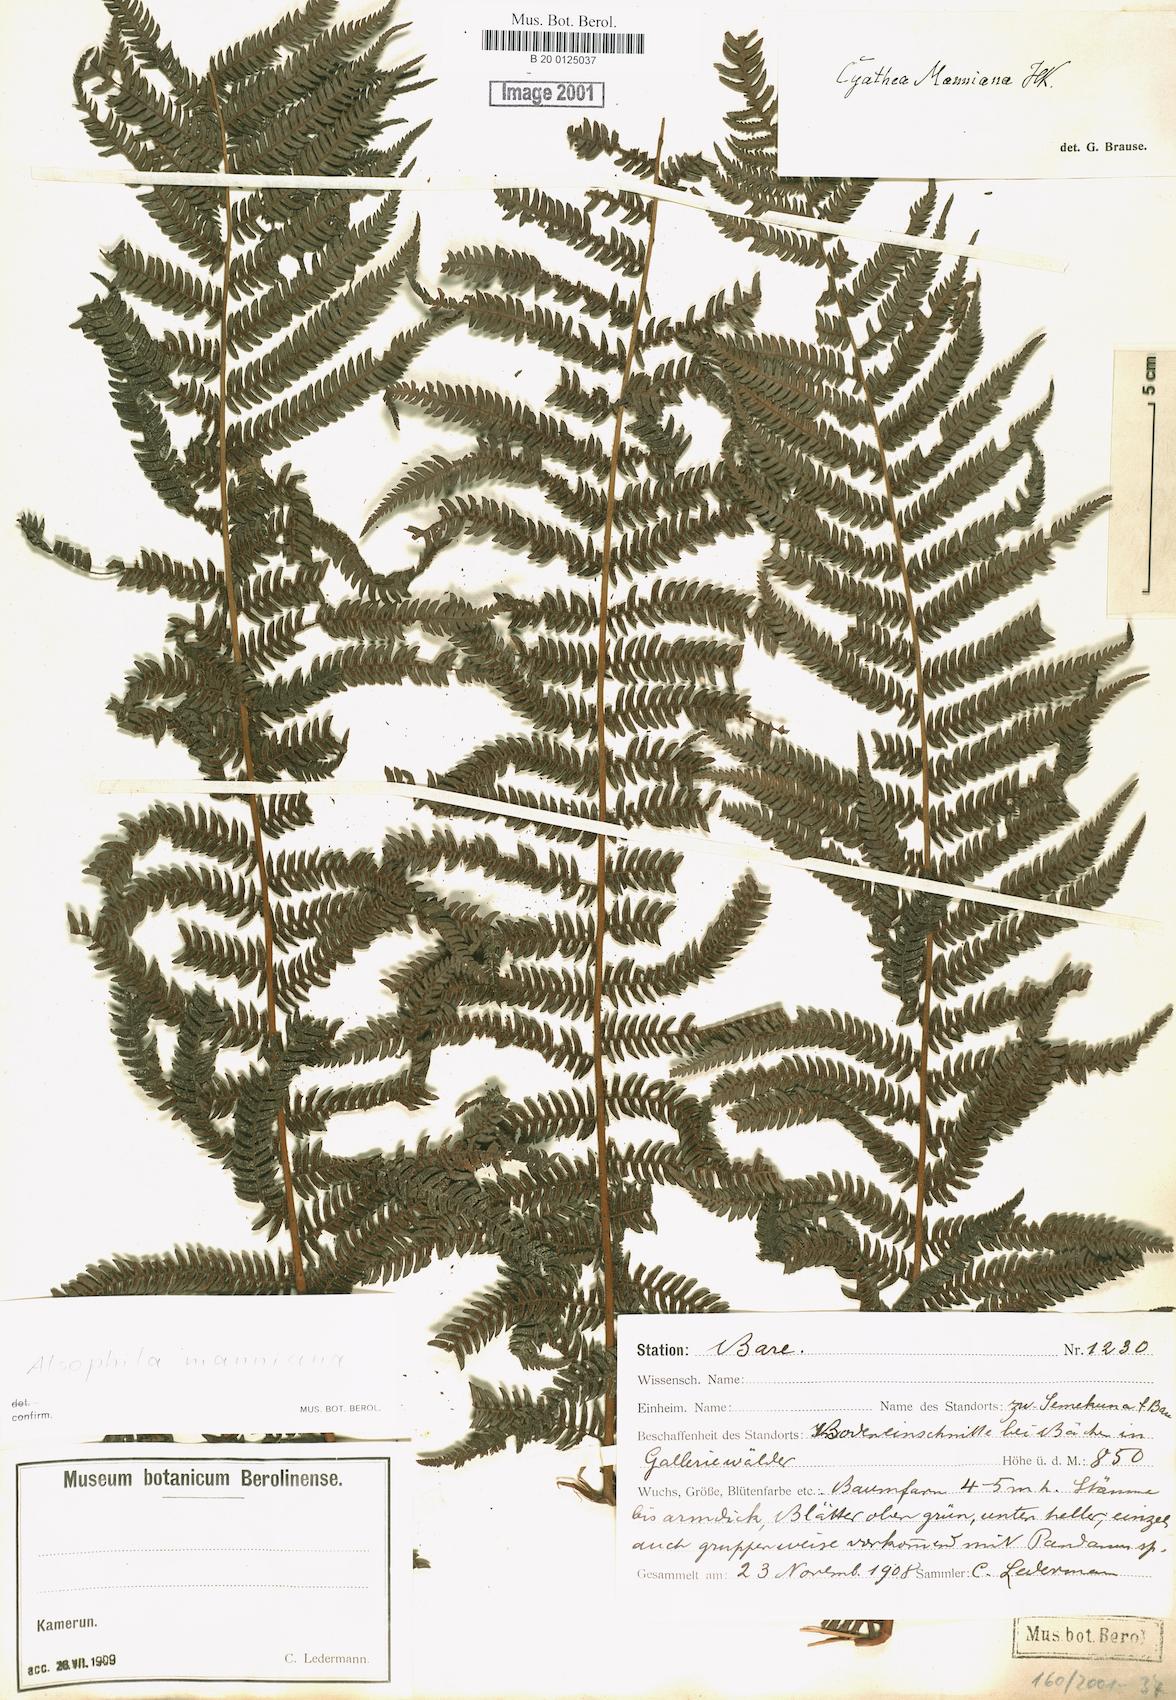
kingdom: Plantae
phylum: Tracheophyta
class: Polypodiopsida
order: Cyatheales
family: Cyatheaceae
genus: Alsophila
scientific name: Alsophila manniana
